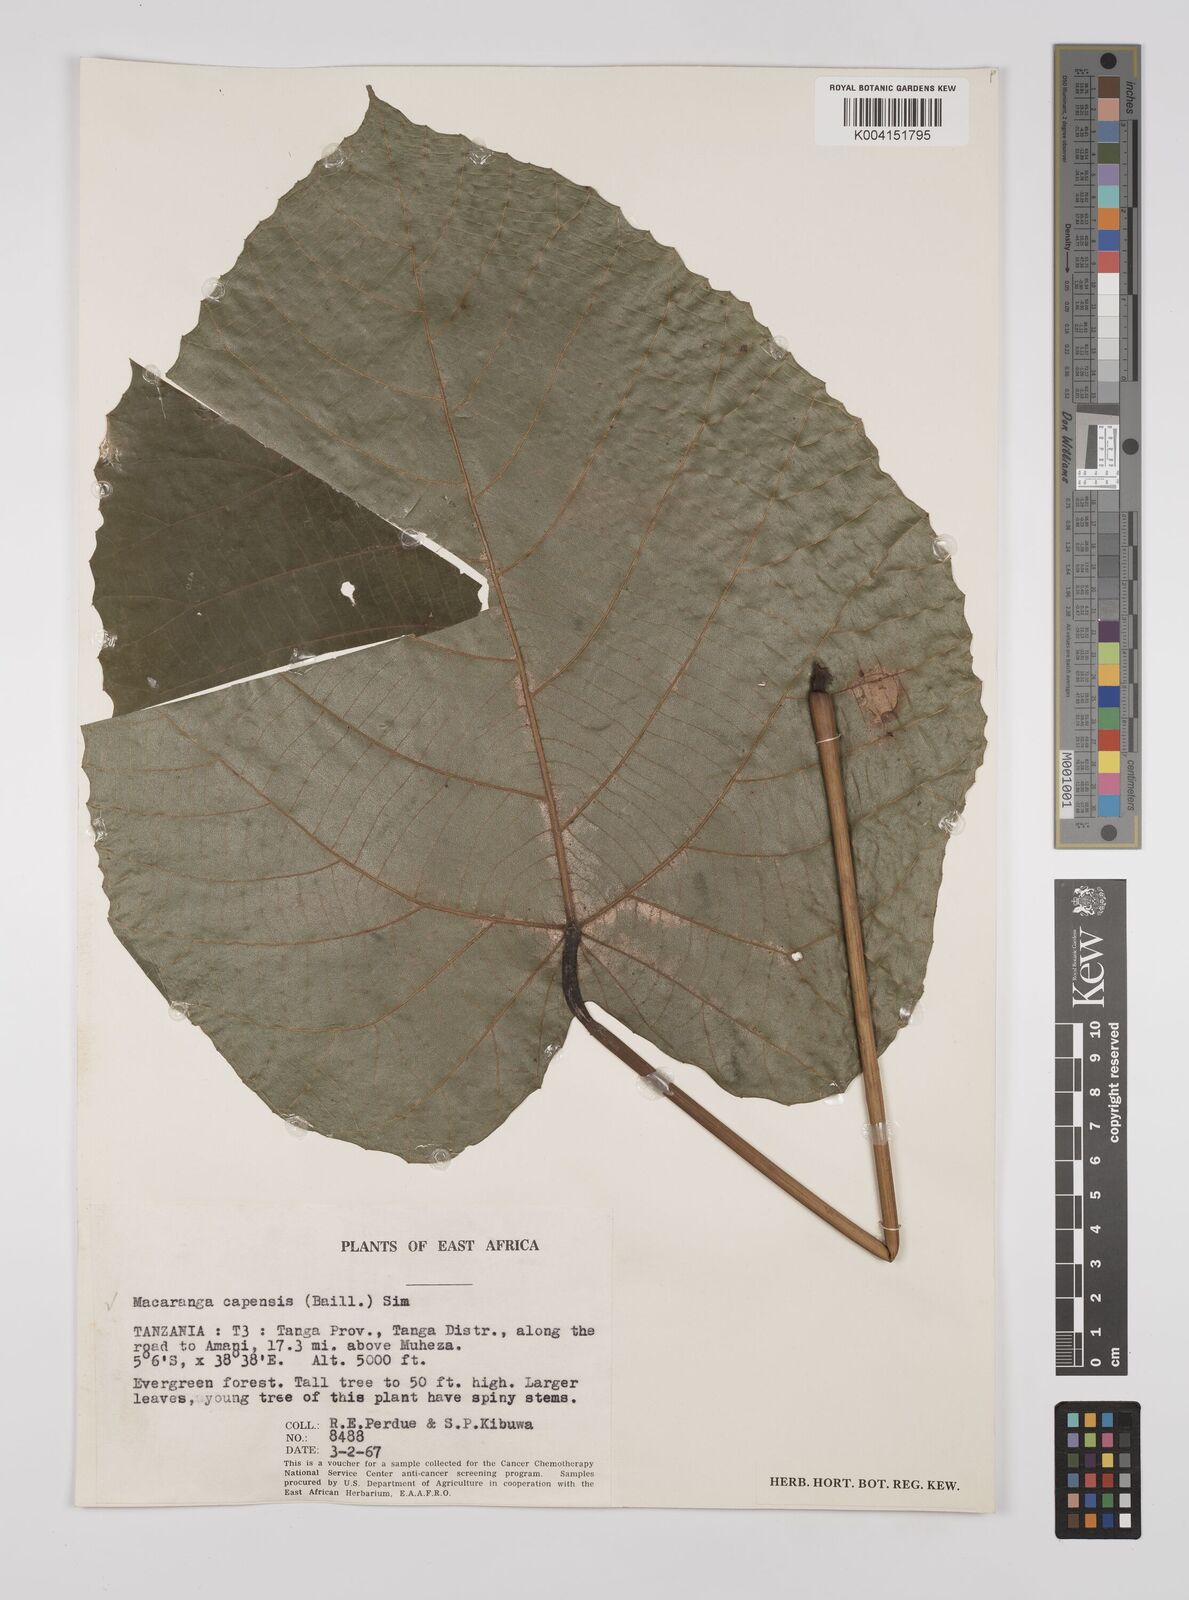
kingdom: Plantae
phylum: Tracheophyta
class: Magnoliopsida
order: Malpighiales
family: Euphorbiaceae
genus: Macaranga
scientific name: Macaranga capensis
